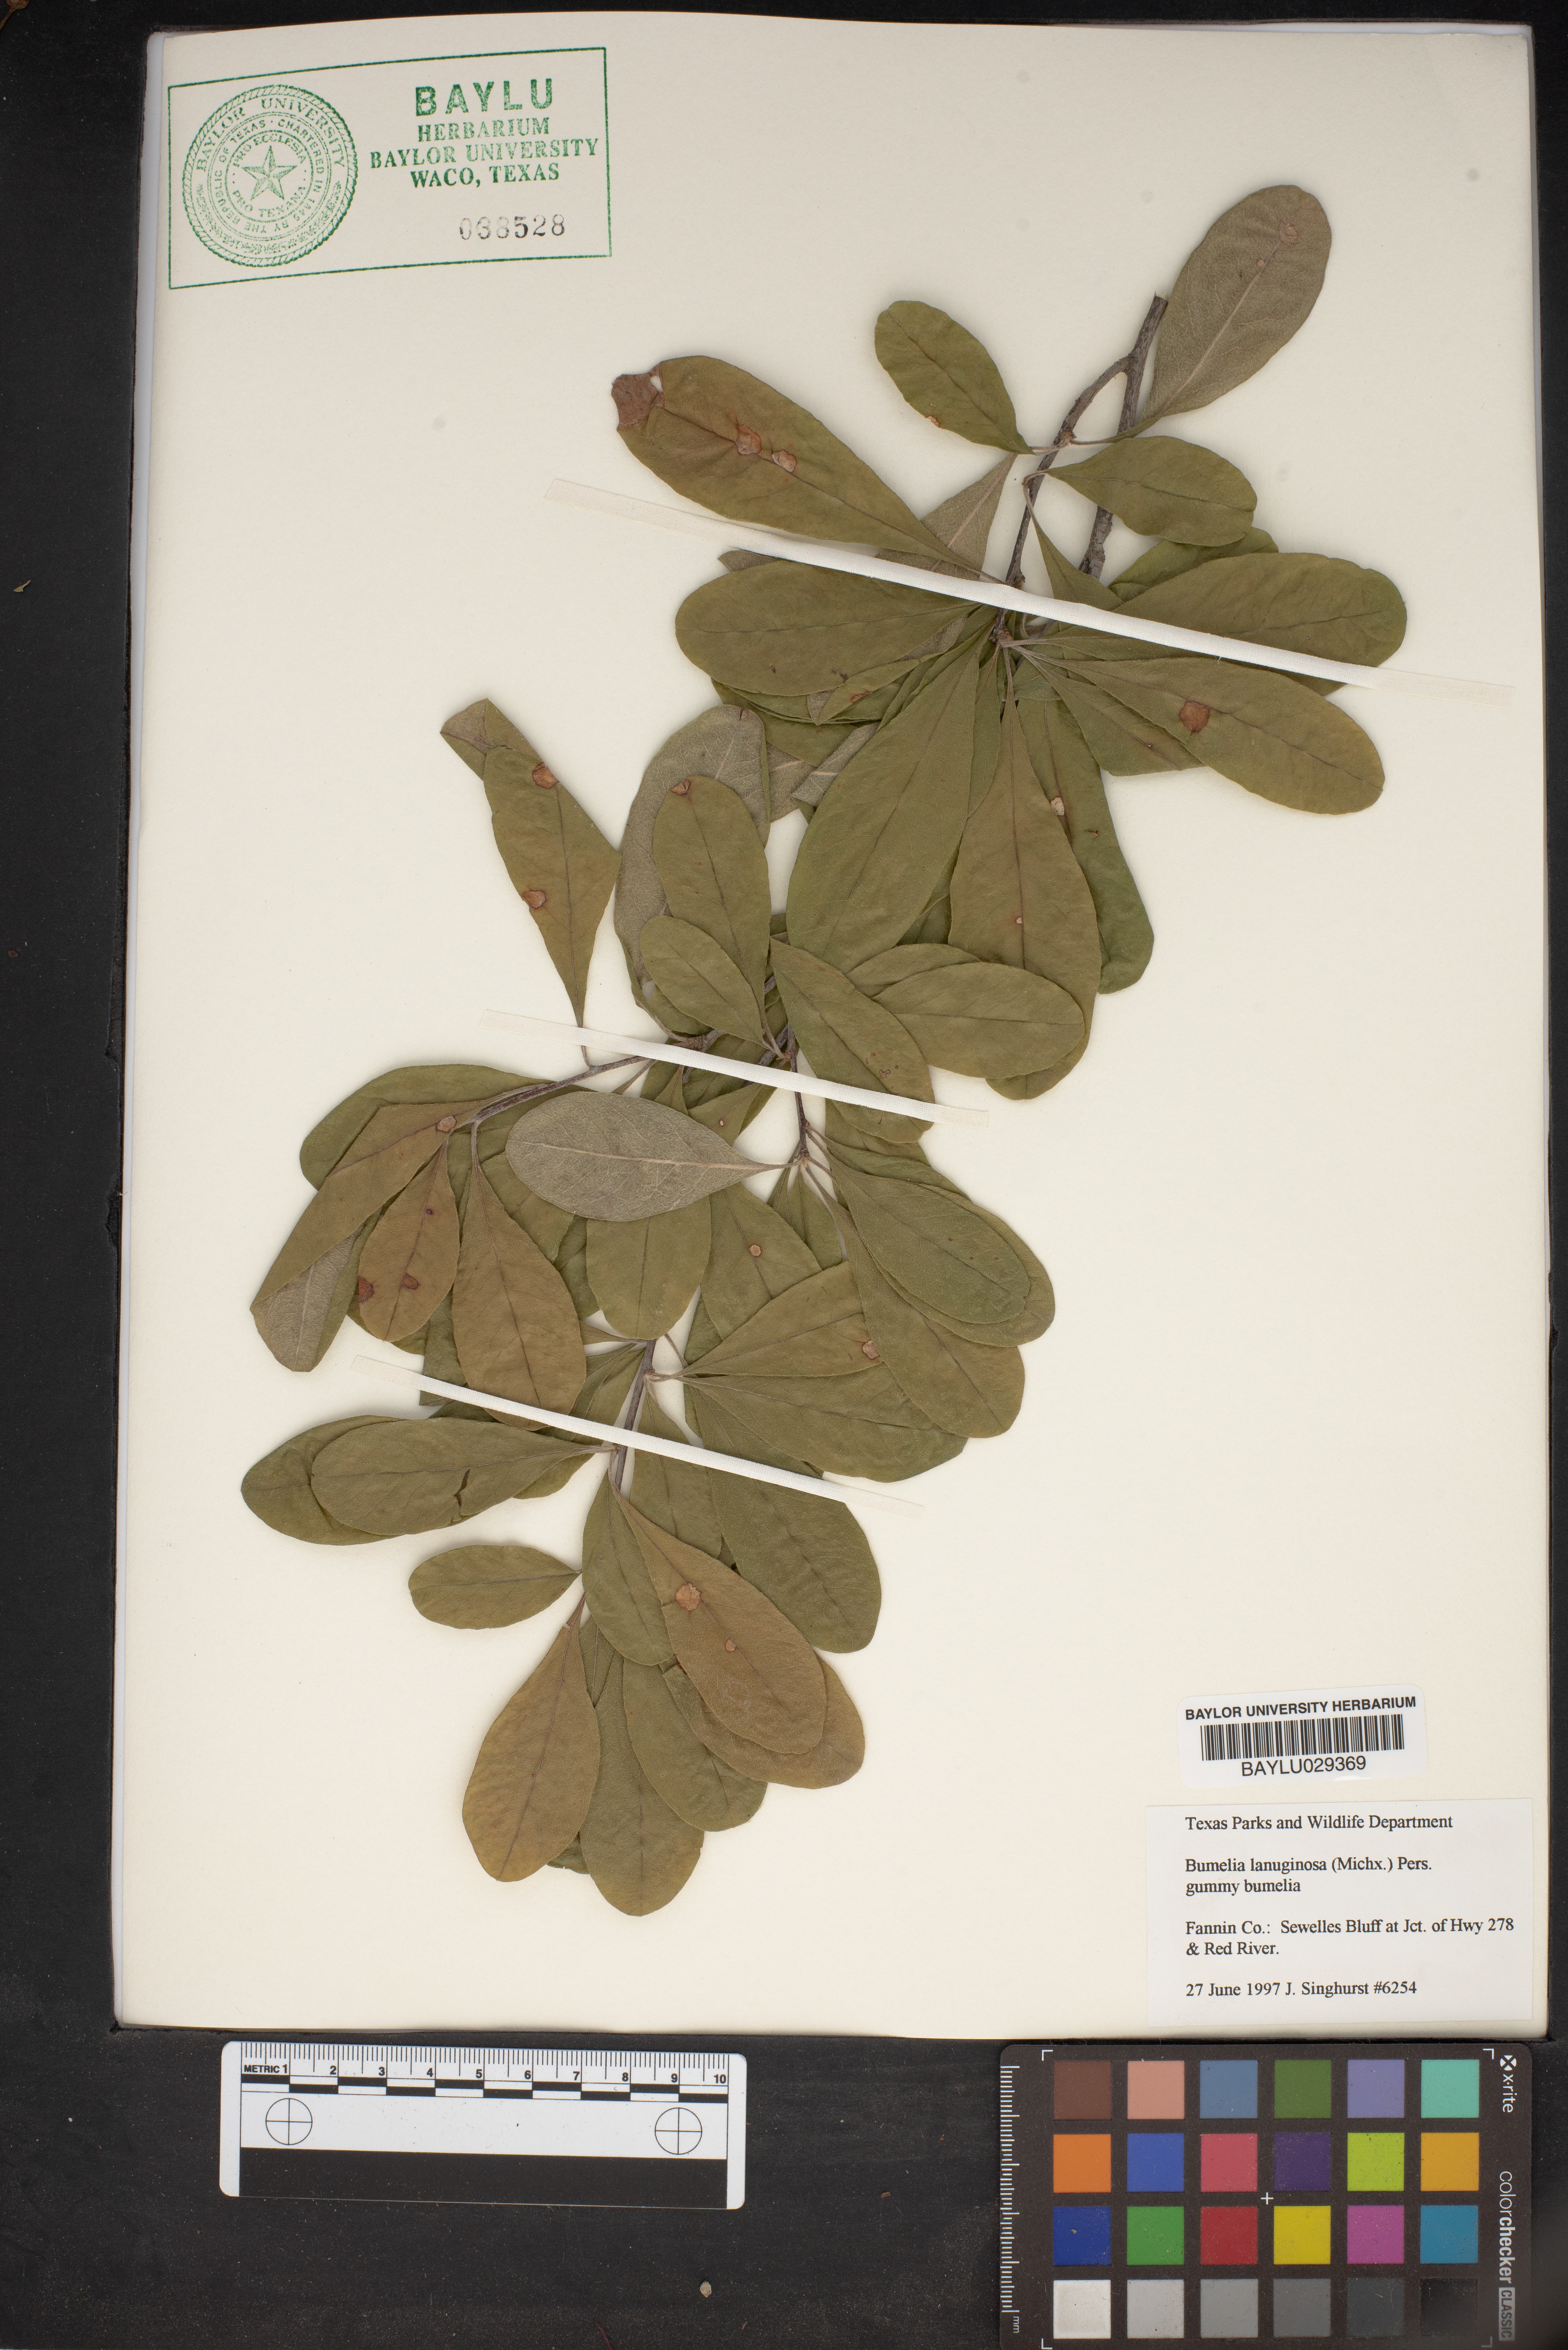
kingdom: Plantae
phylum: Tracheophyta
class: Magnoliopsida
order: Ericales
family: Sapotaceae
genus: Sideroxylon
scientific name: Sideroxylon lanuginosum
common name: Chittamwood
